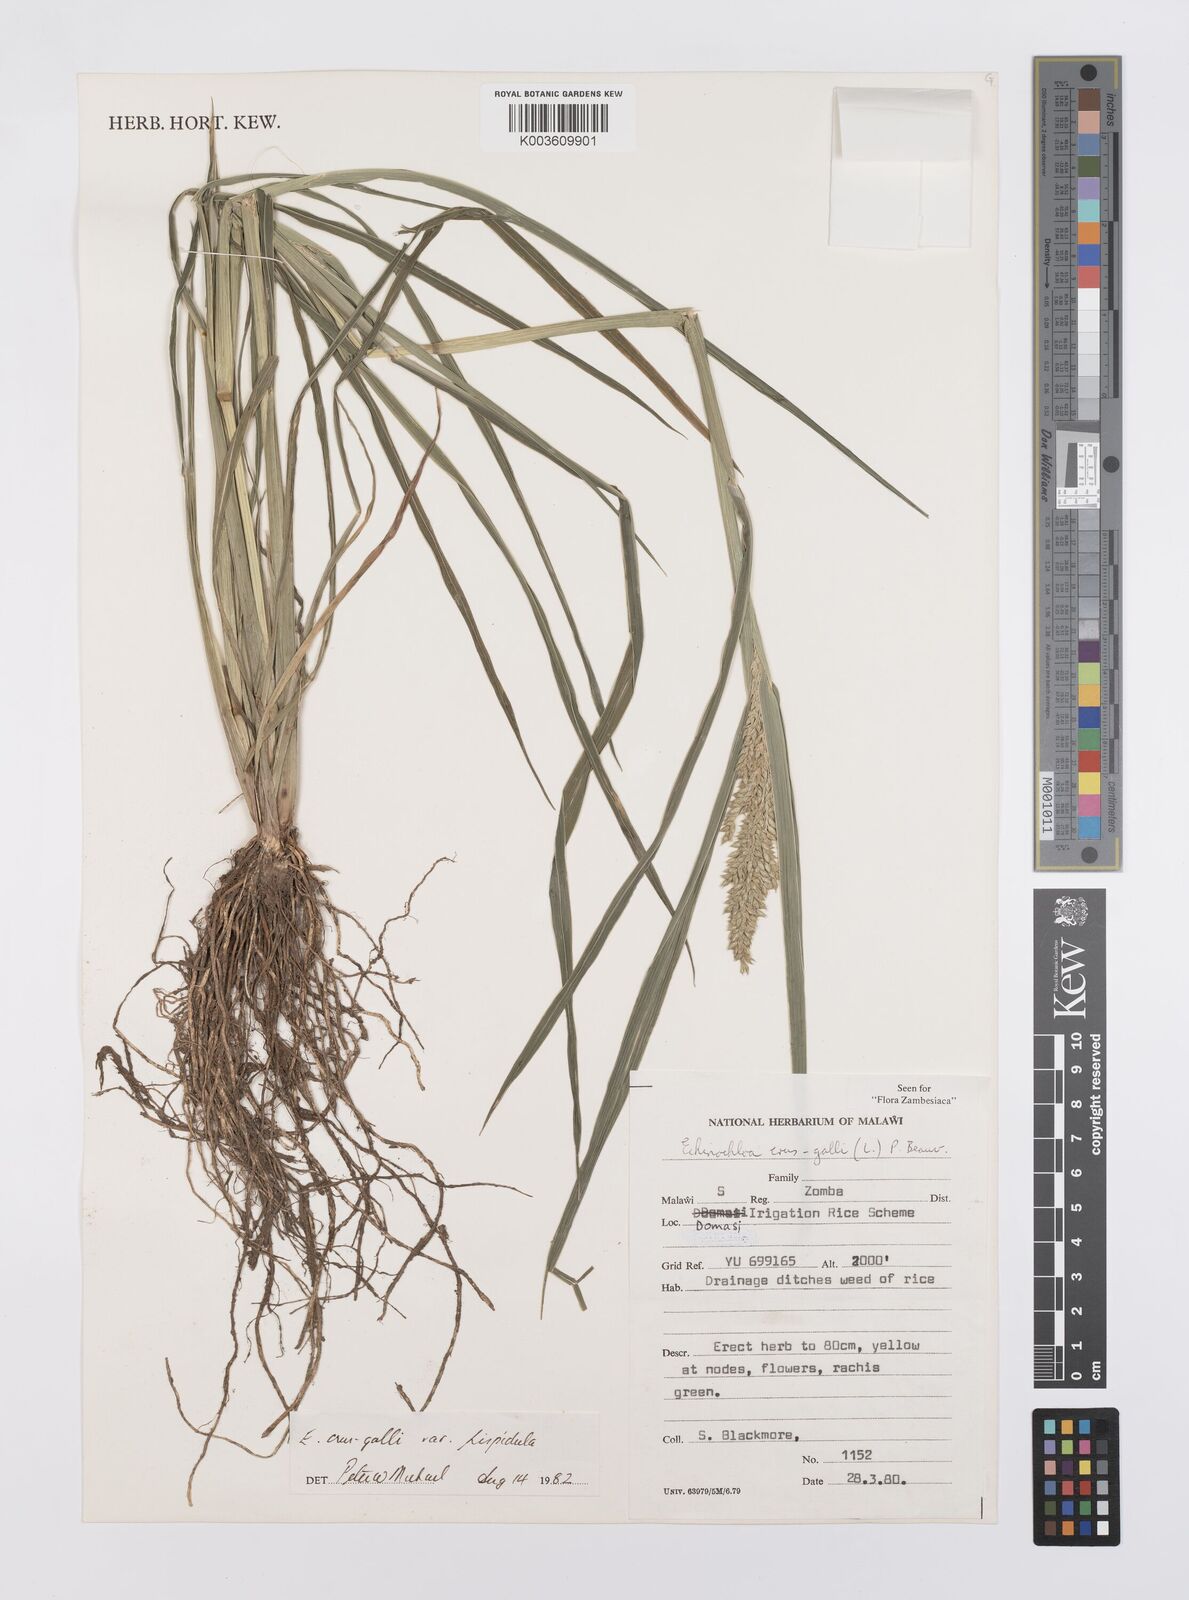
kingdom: Plantae
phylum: Tracheophyta
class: Liliopsida
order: Poales
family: Poaceae
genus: Echinochloa
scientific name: Echinochloa crus-galli
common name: Cockspur
